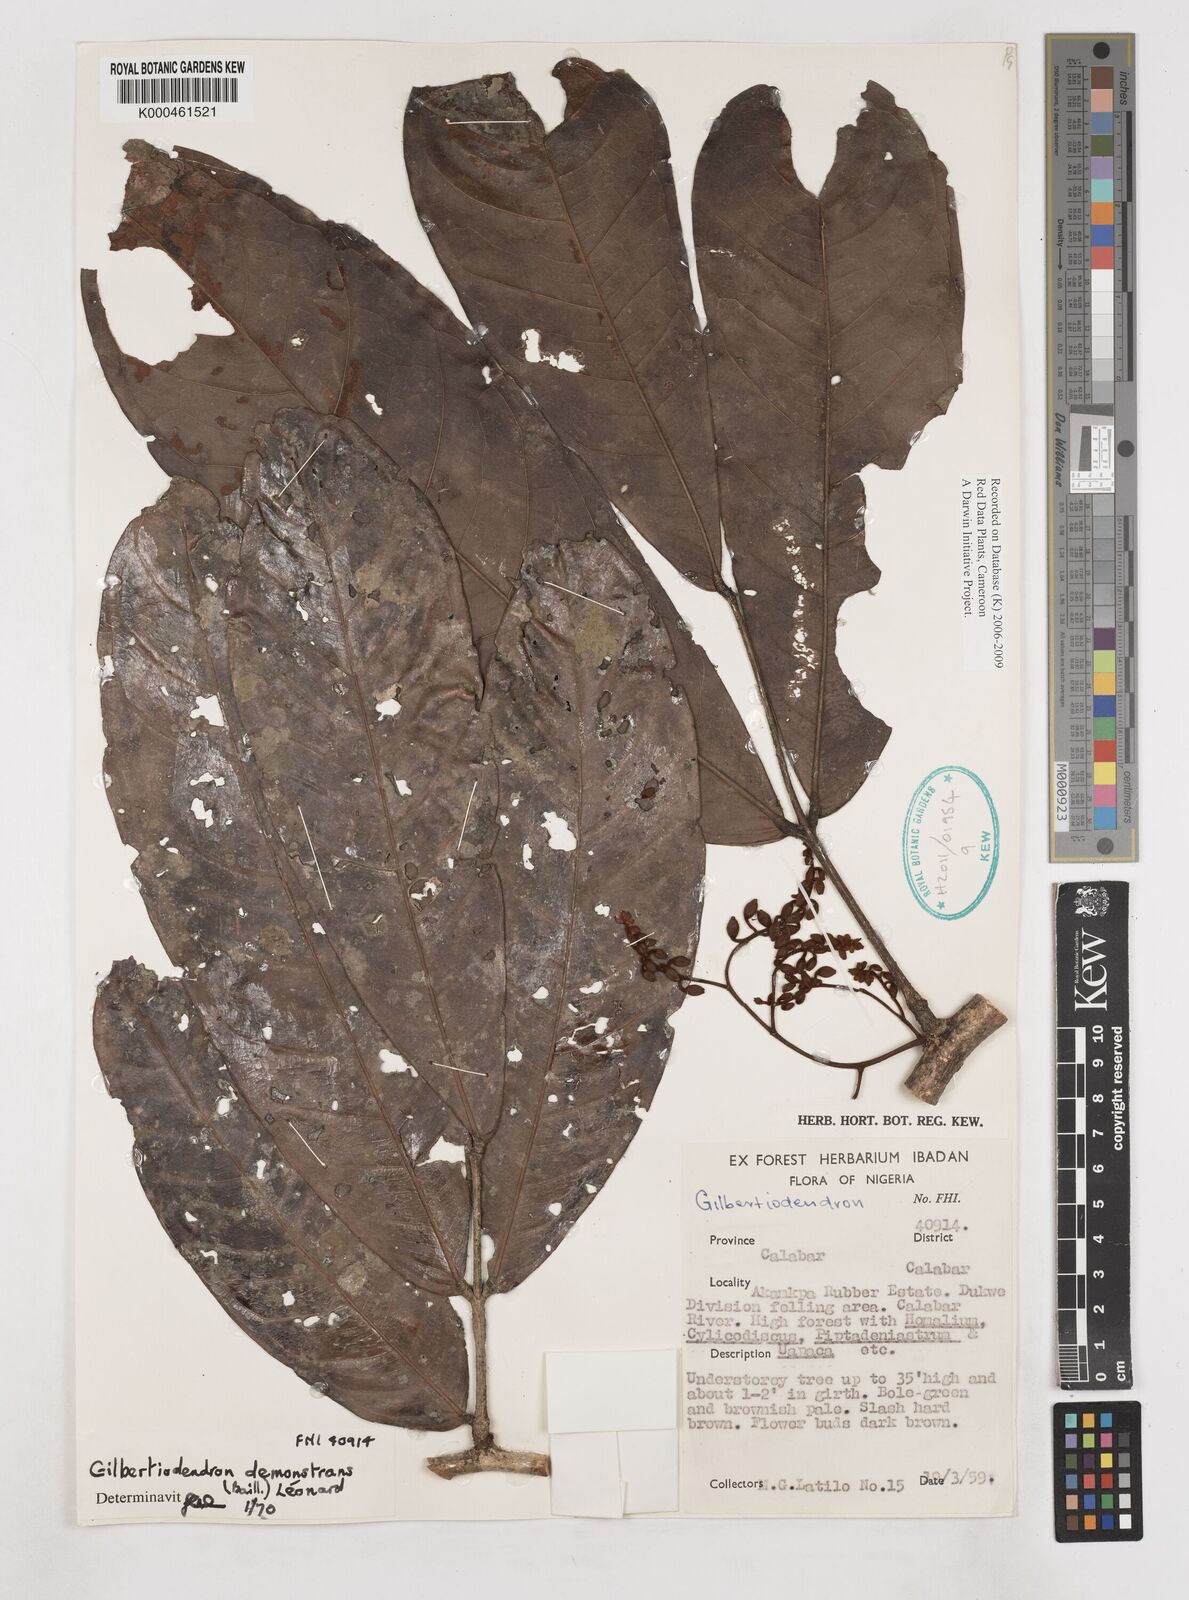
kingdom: Plantae
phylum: Tracheophyta
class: Magnoliopsida
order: Fabales
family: Fabaceae
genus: Gilbertiodendron
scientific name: Gilbertiodendron
